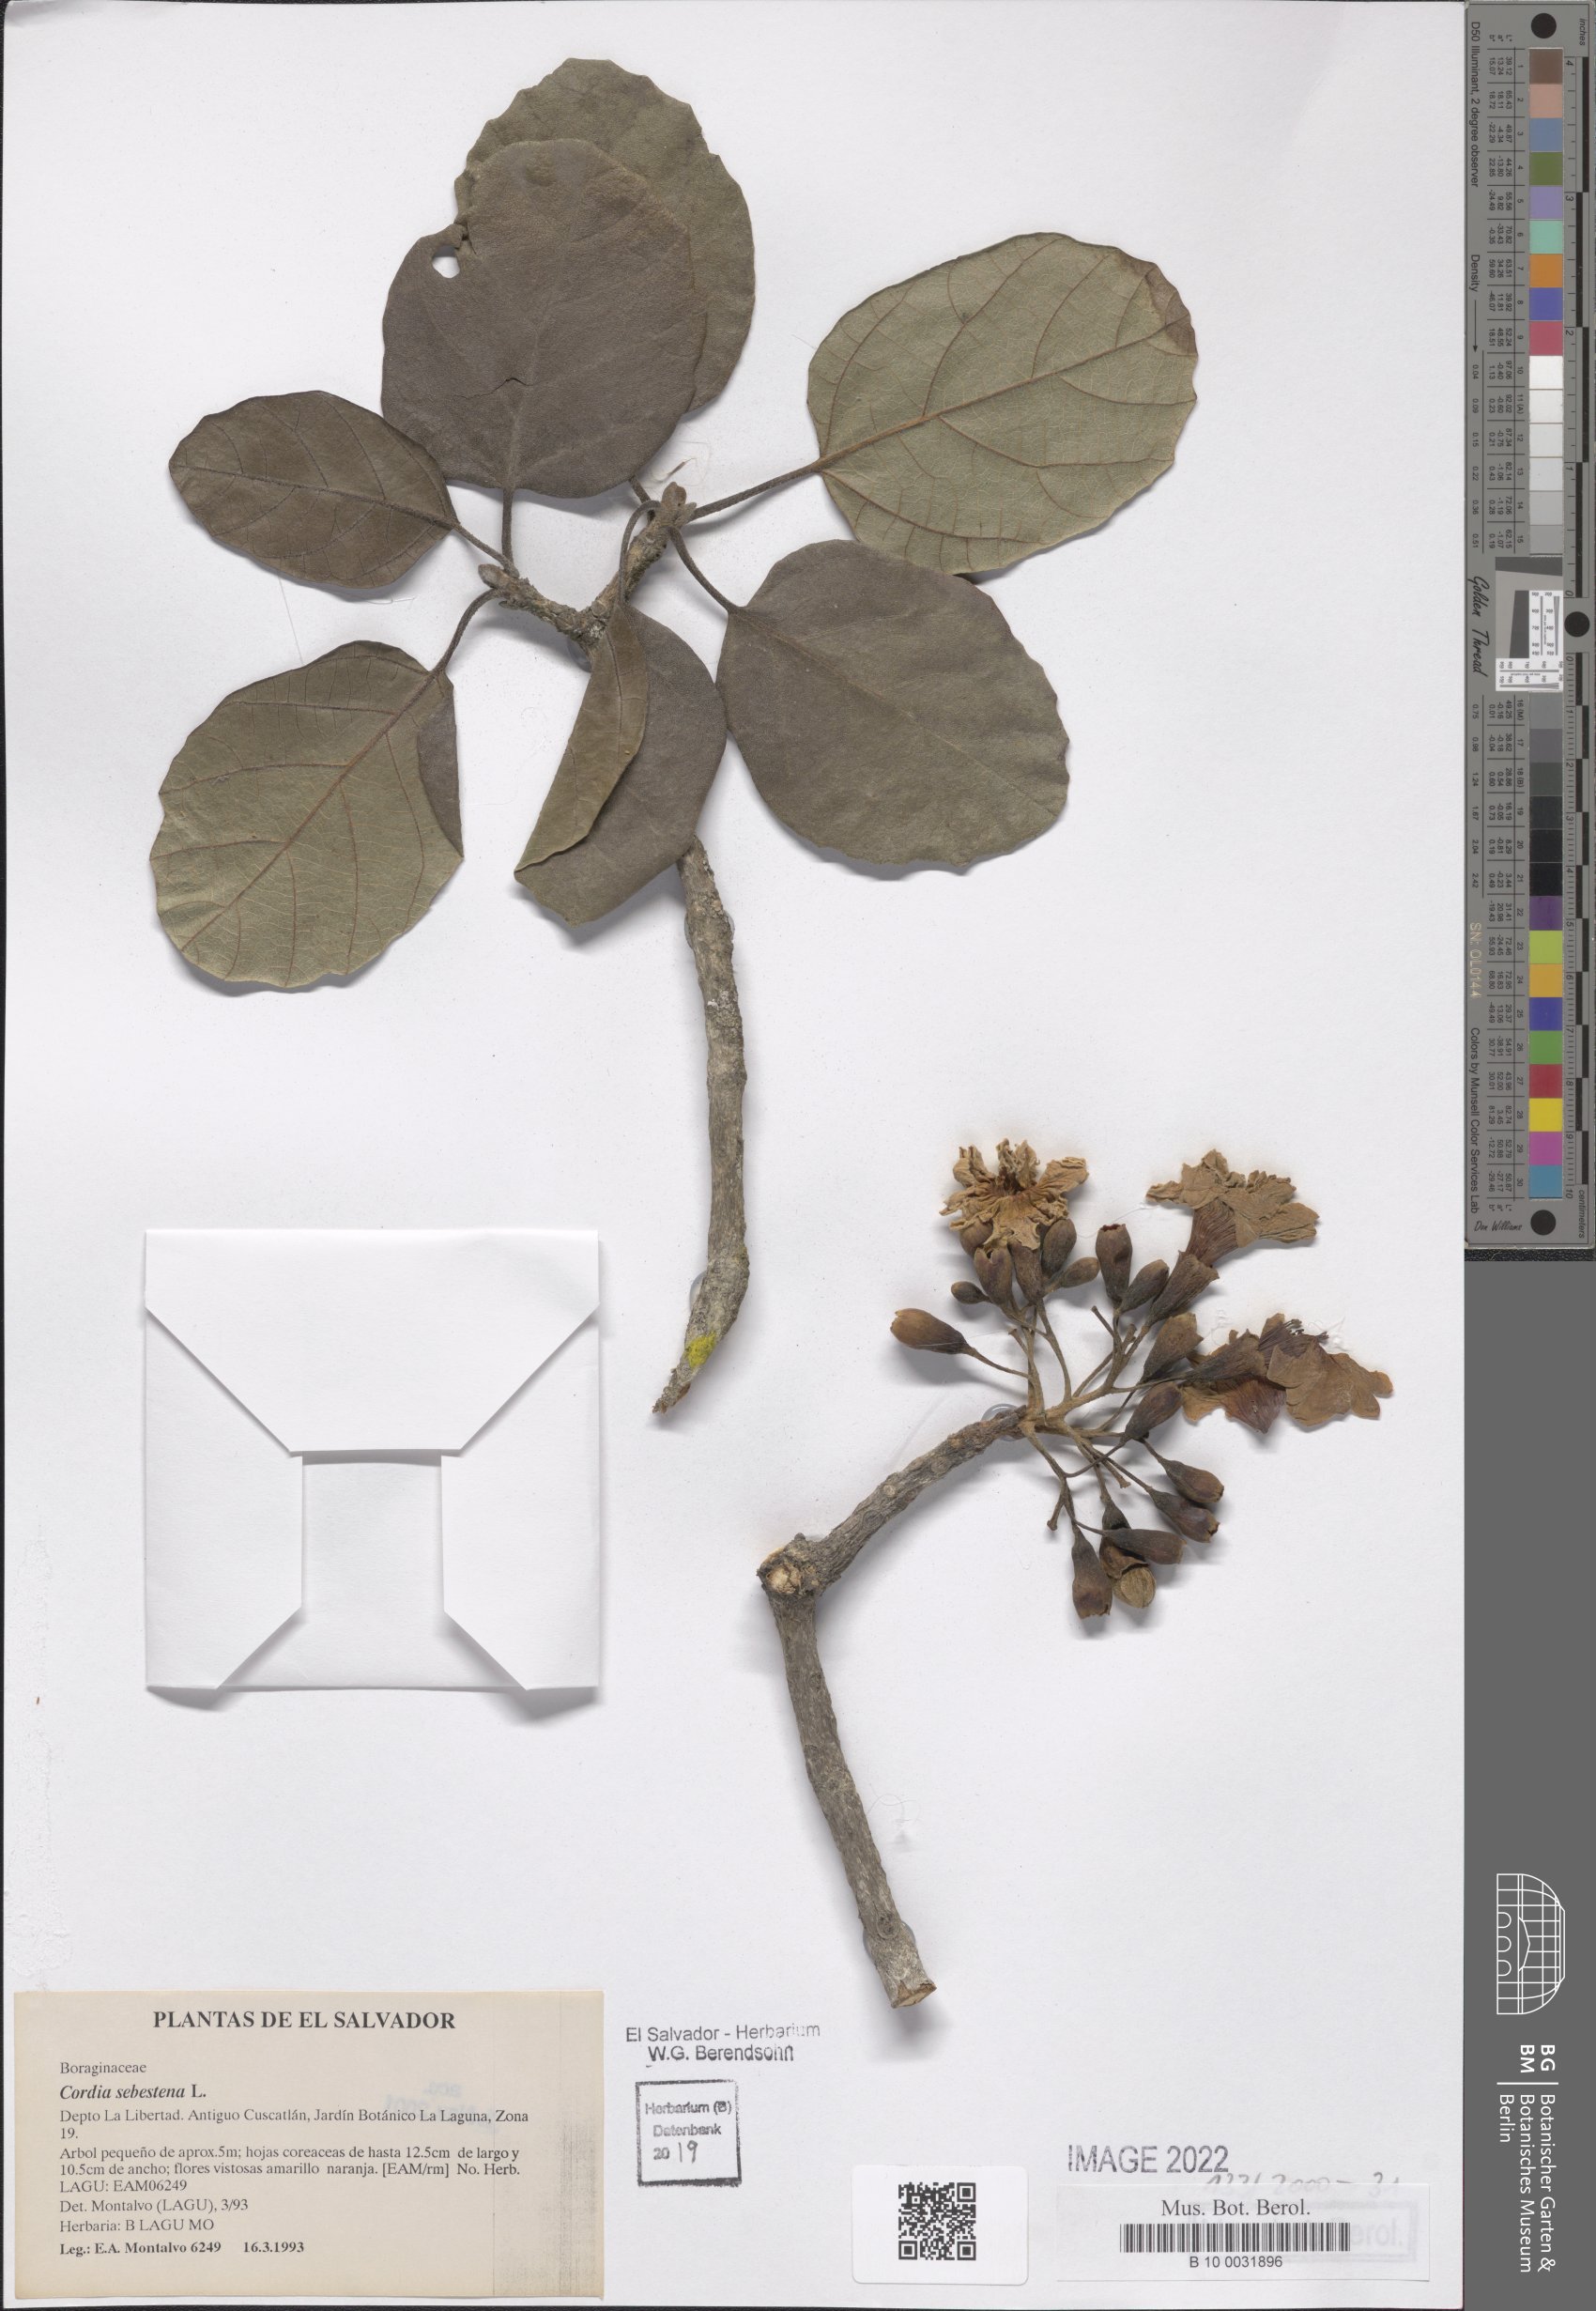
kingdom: Plantae
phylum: Tracheophyta
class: Magnoliopsida
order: Boraginales
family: Cordiaceae
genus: Cordia
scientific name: Cordia sebestena
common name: Largeleaf geigertree
